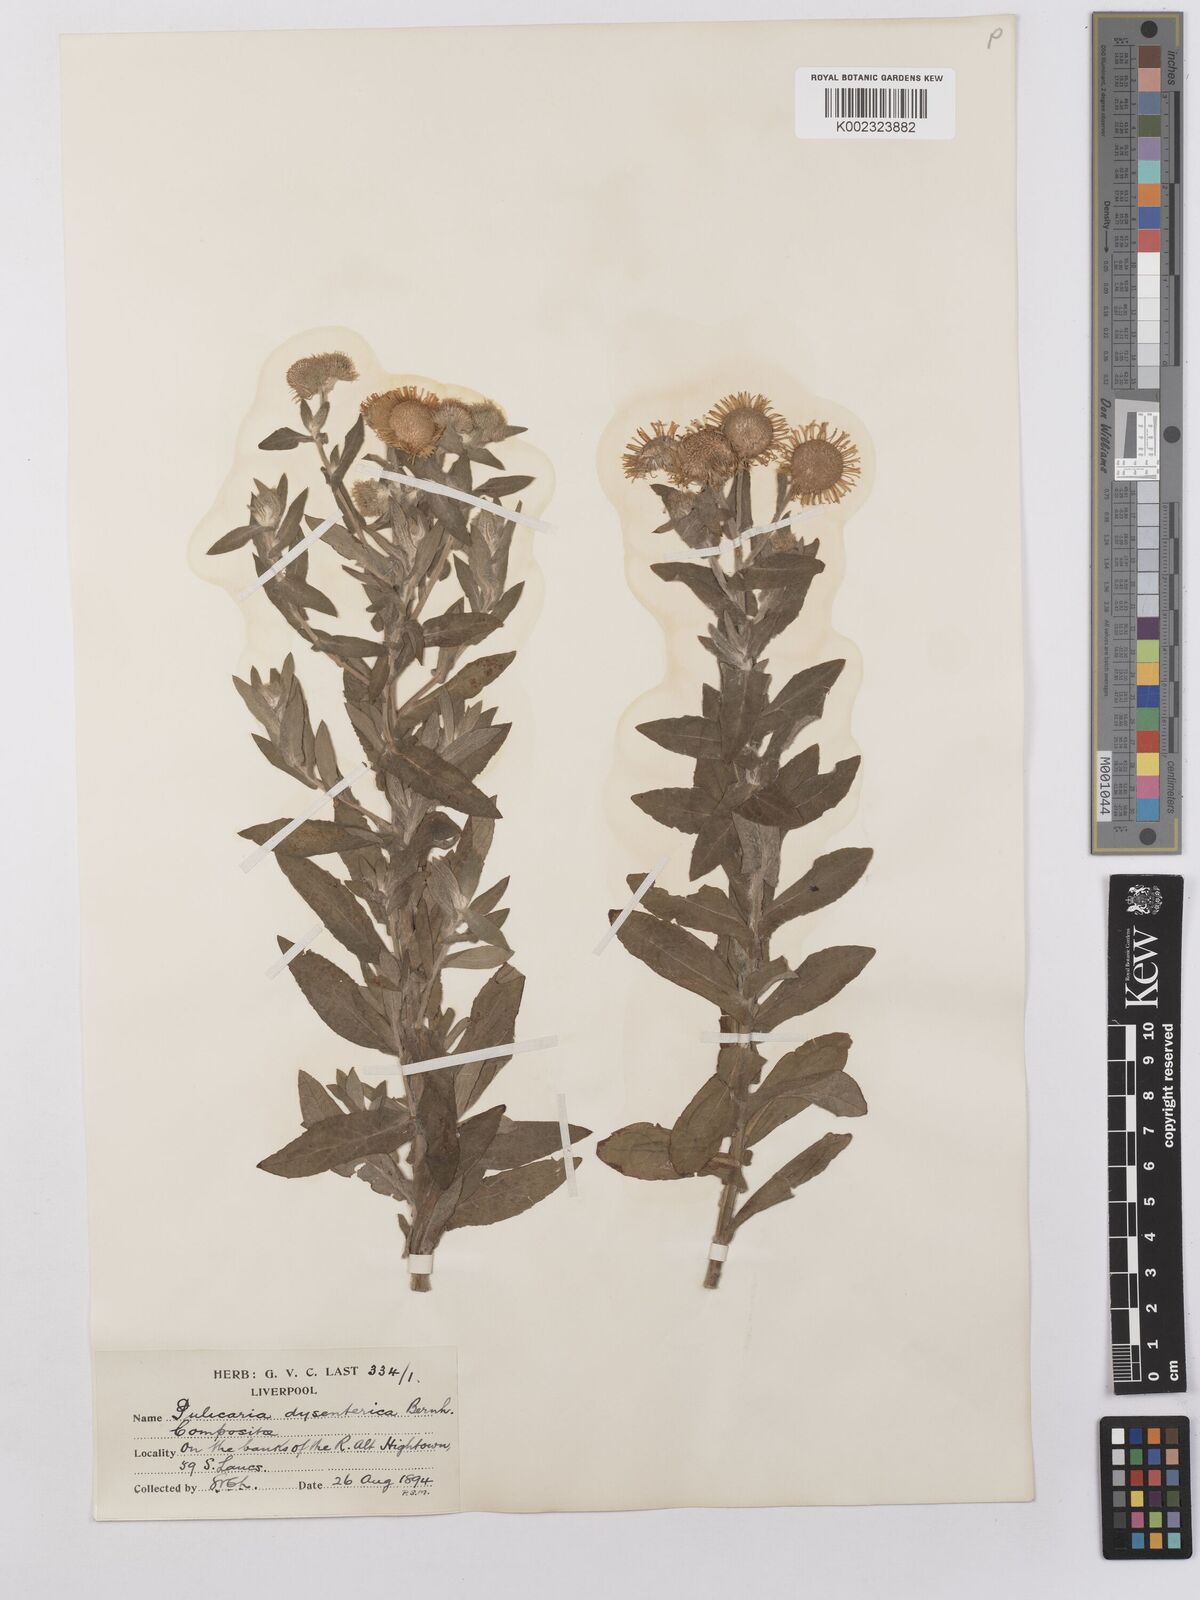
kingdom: Plantae
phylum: Tracheophyta
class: Magnoliopsida
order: Asterales
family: Asteraceae
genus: Pulicaria
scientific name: Pulicaria dysenterica
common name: Common fleabane
